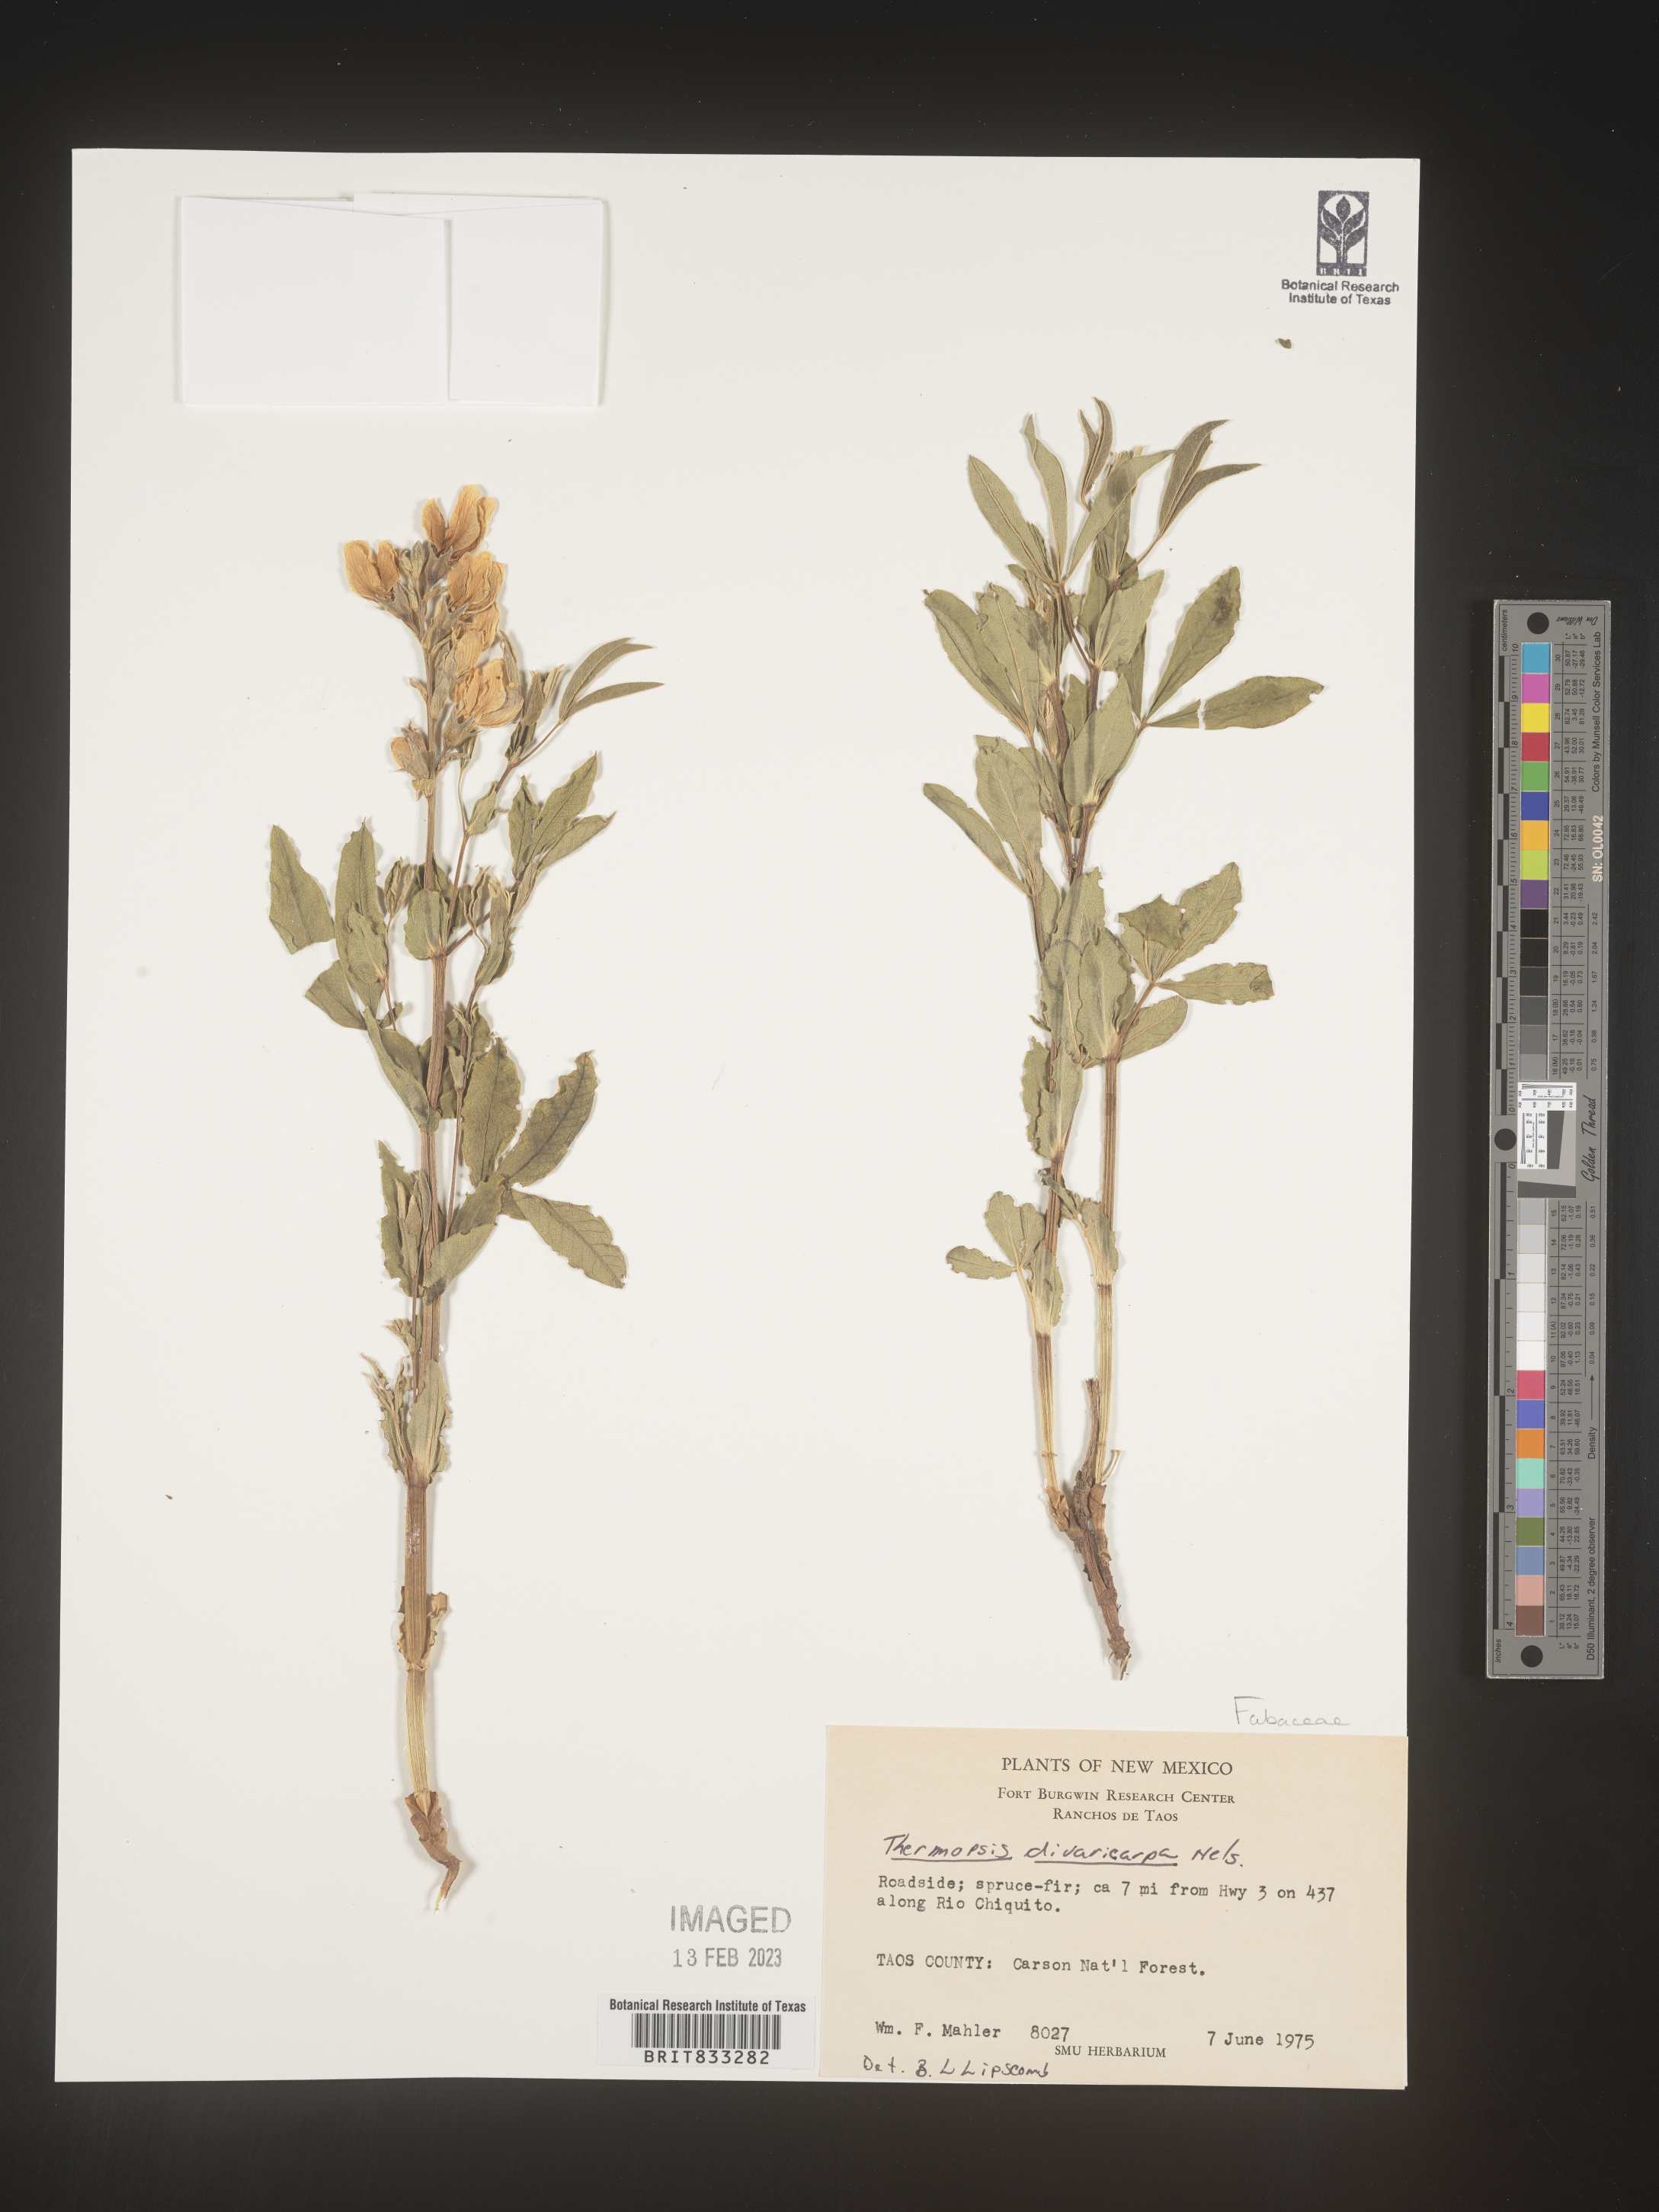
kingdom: Plantae
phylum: Tracheophyta
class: Magnoliopsida
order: Fabales
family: Fabaceae
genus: Thermopsis
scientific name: Thermopsis rhombifolia
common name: Circle-pod-pea
